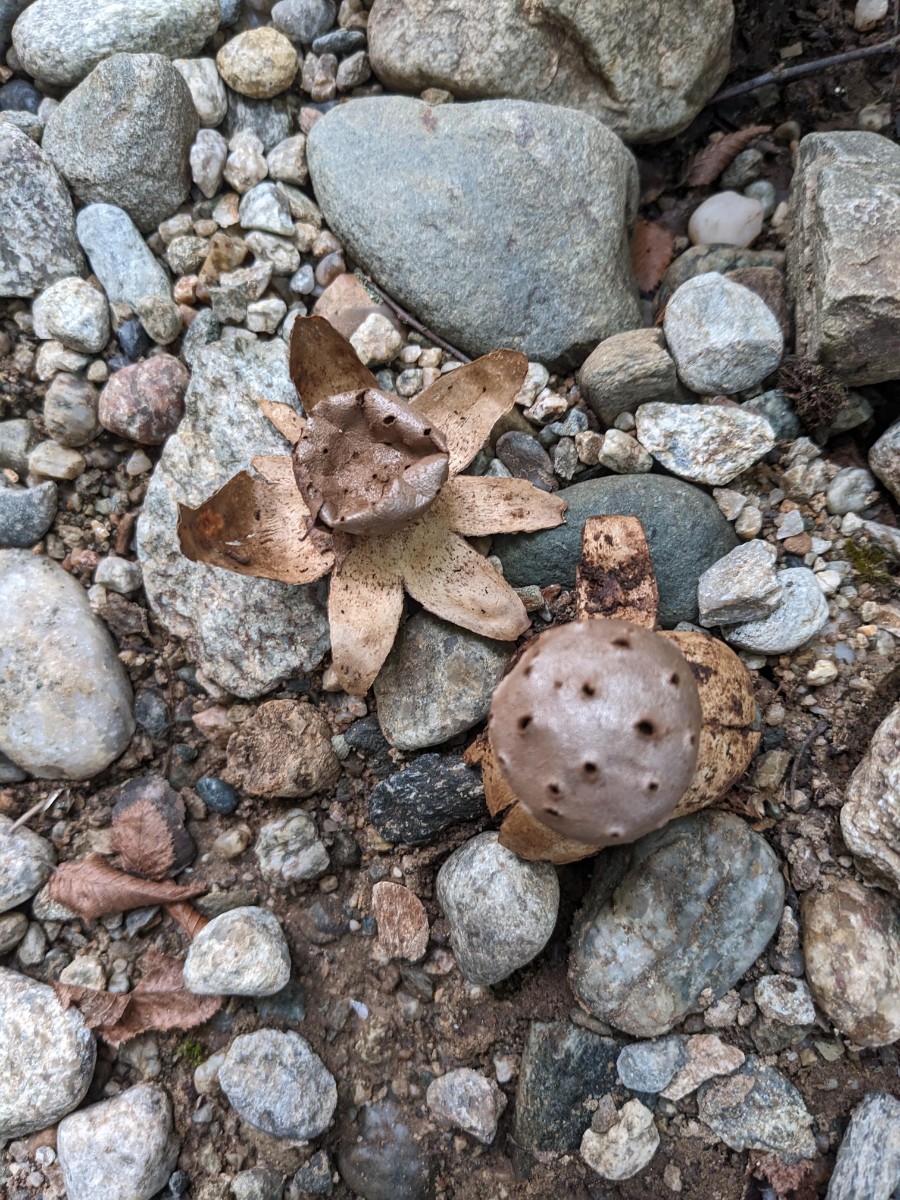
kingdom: Fungi
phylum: Basidiomycota
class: Agaricomycetes
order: Geastrales
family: Geastraceae
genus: Myriostoma
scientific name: Myriostoma coliforme
